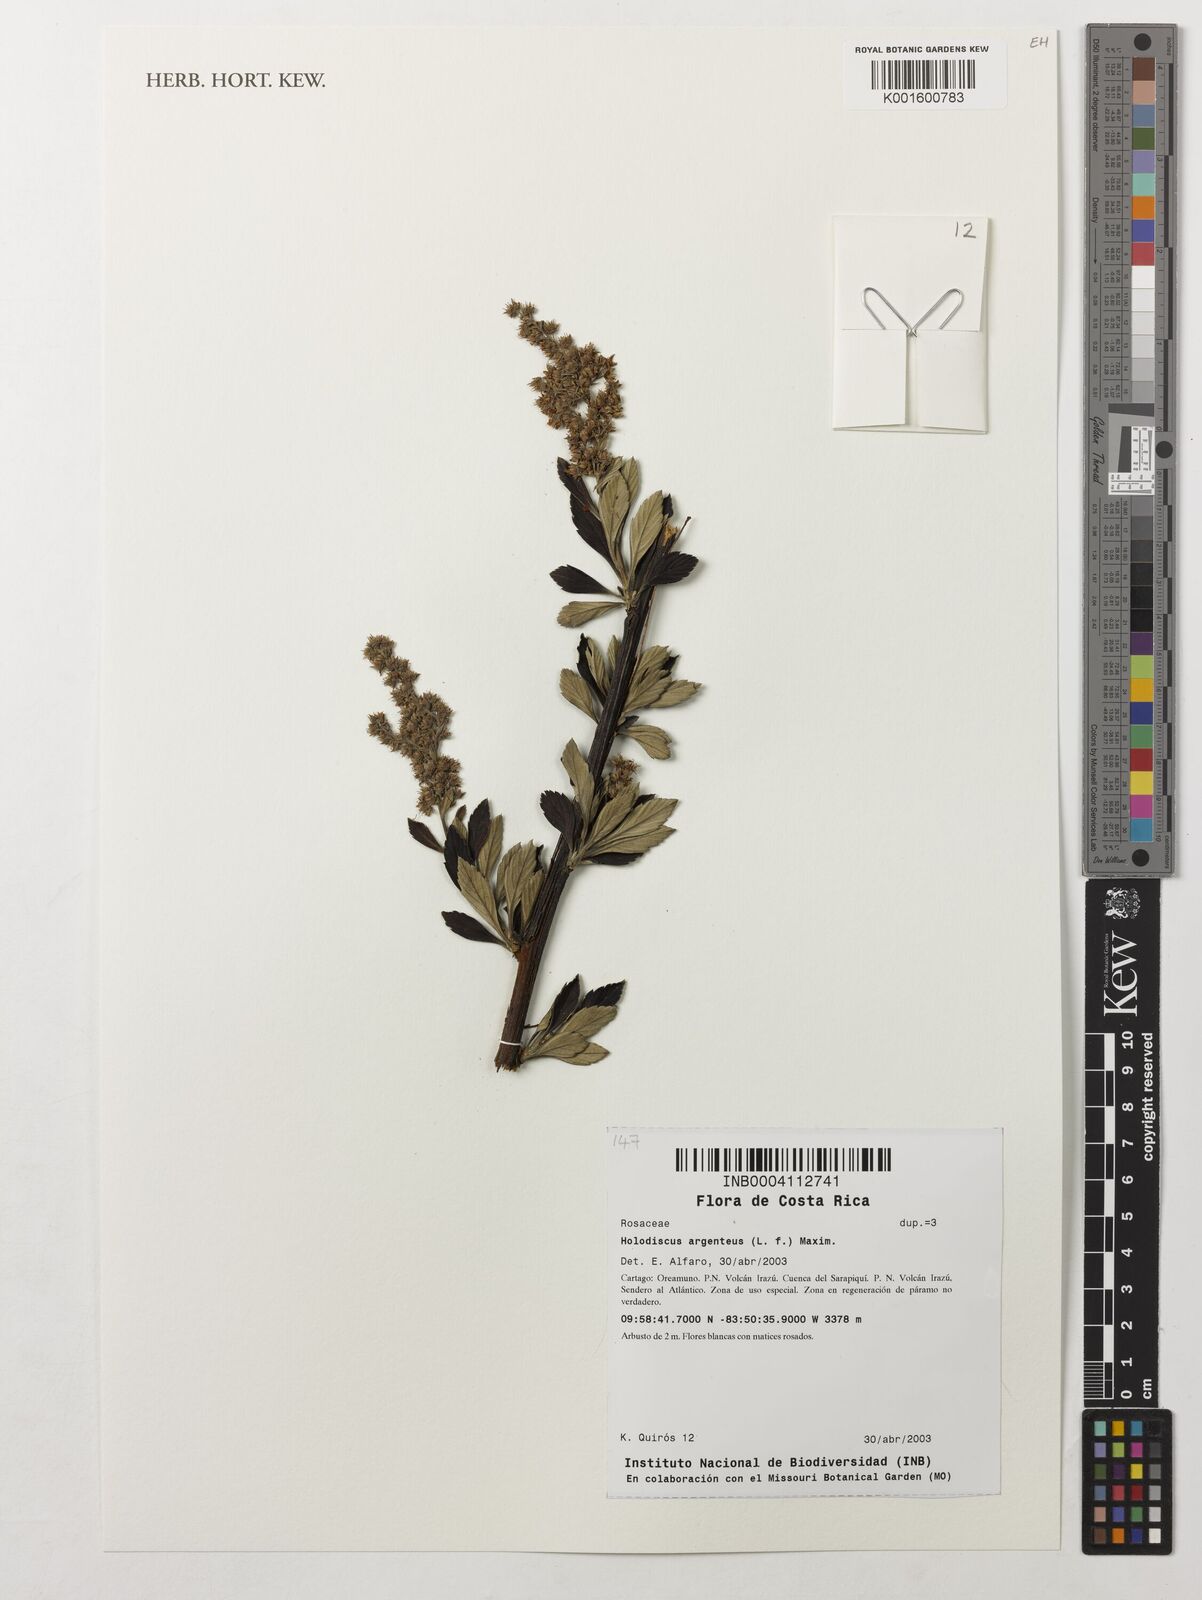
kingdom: Plantae
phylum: Tracheophyta
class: Magnoliopsida
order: Rosales
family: Rosaceae
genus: Holodiscus
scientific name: Holodiscus argenteus
